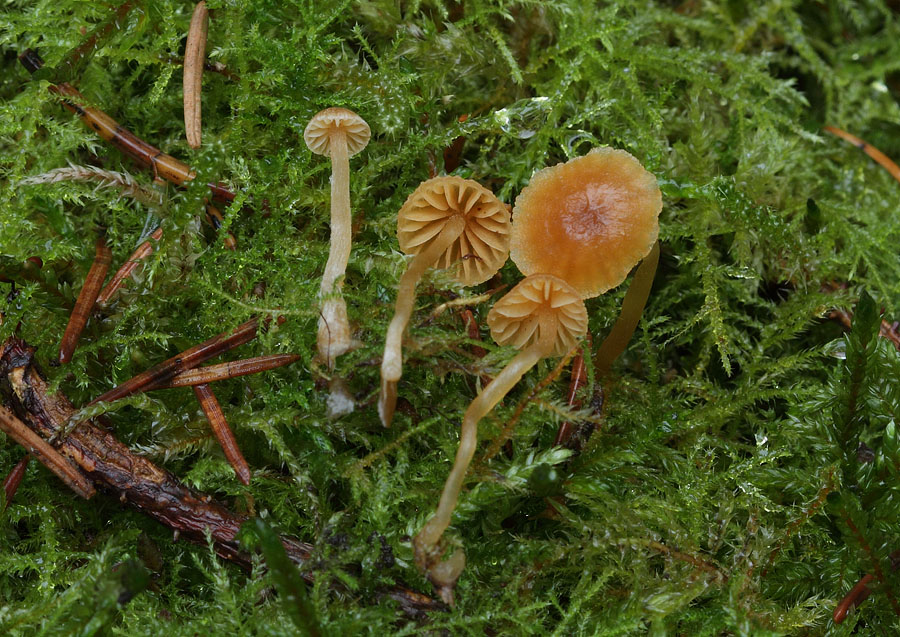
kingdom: Fungi
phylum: Basidiomycota
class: Agaricomycetes
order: Agaricales
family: Hymenogastraceae
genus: Galerina
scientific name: Galerina subclavata
